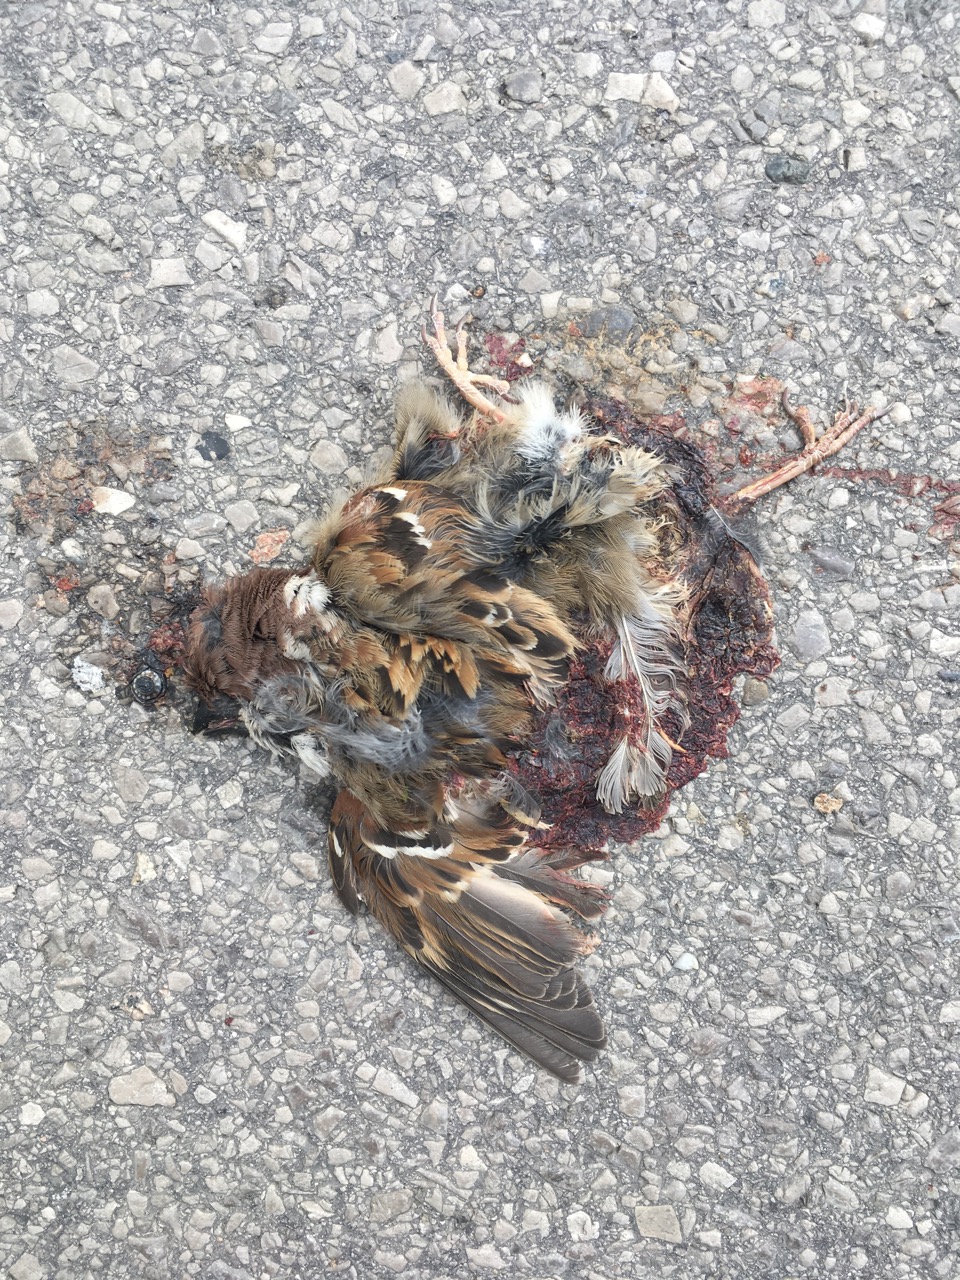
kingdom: Animalia
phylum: Chordata
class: Aves
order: Passeriformes
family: Passeridae
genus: Passer
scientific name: Passer montanus
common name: Eurasian tree sparrow
